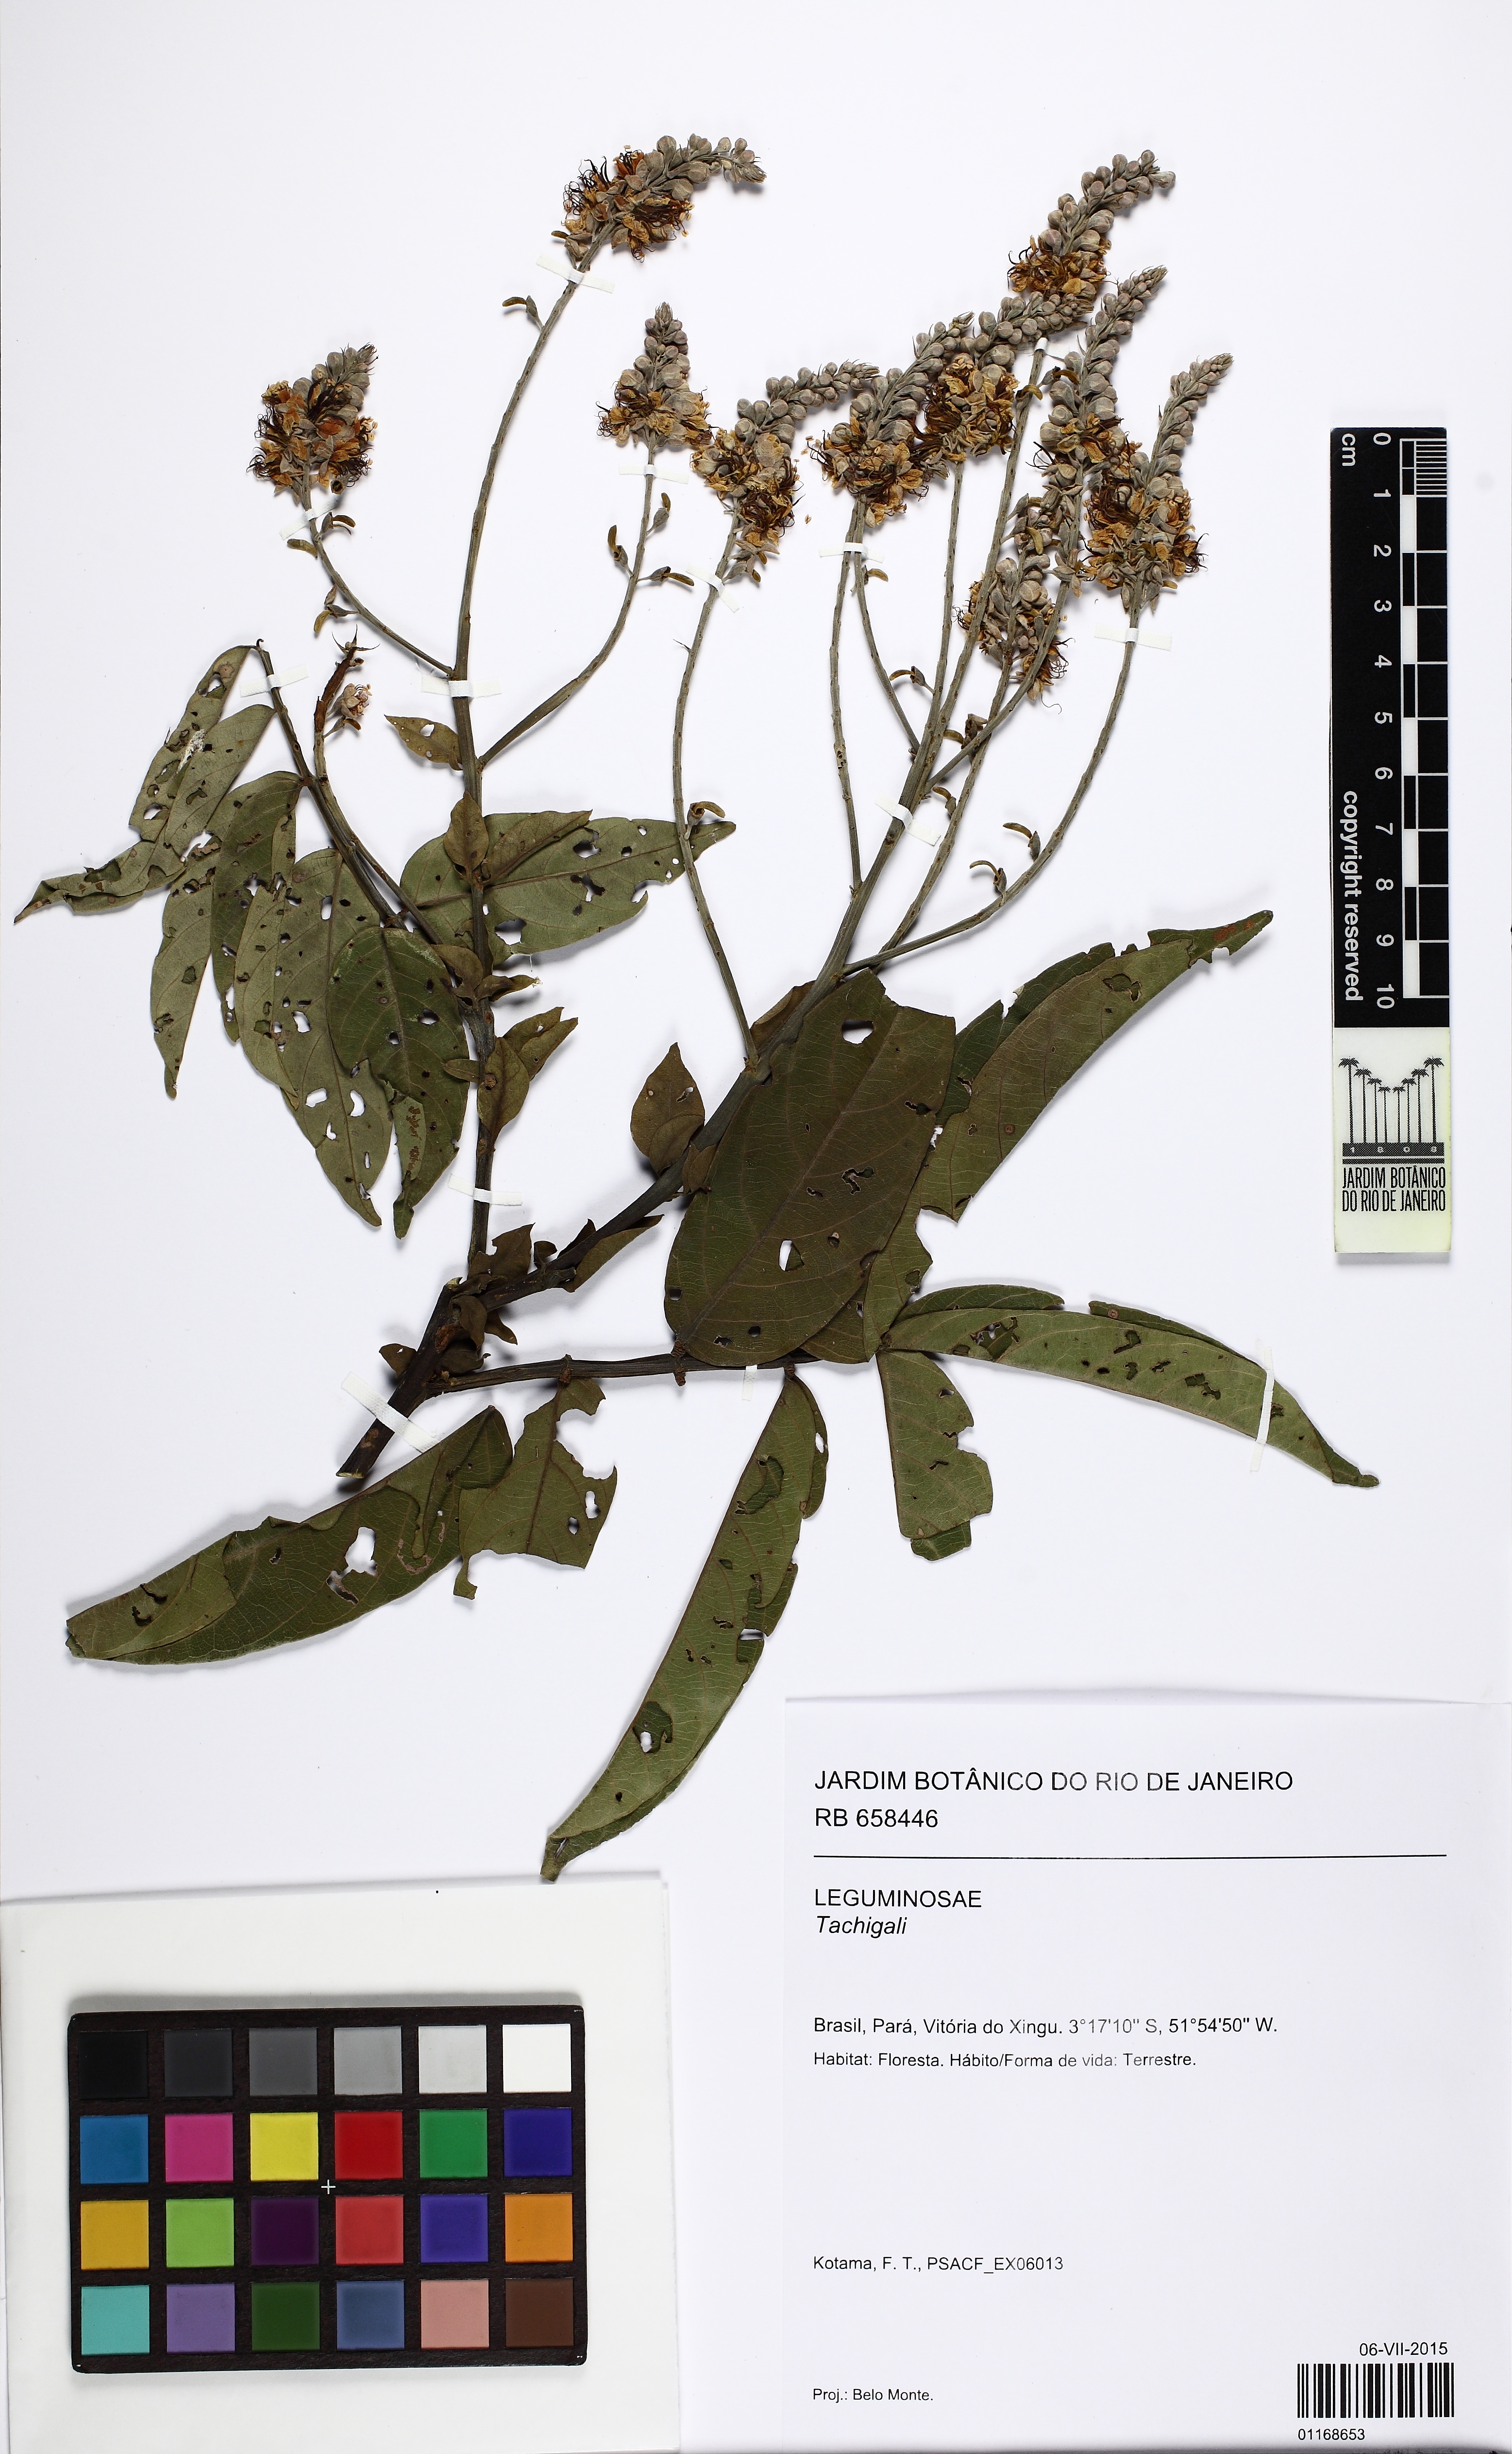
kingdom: Plantae
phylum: Tracheophyta
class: Magnoliopsida
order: Fabales
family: Fabaceae
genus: Tachigali
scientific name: Tachigali paniculata
